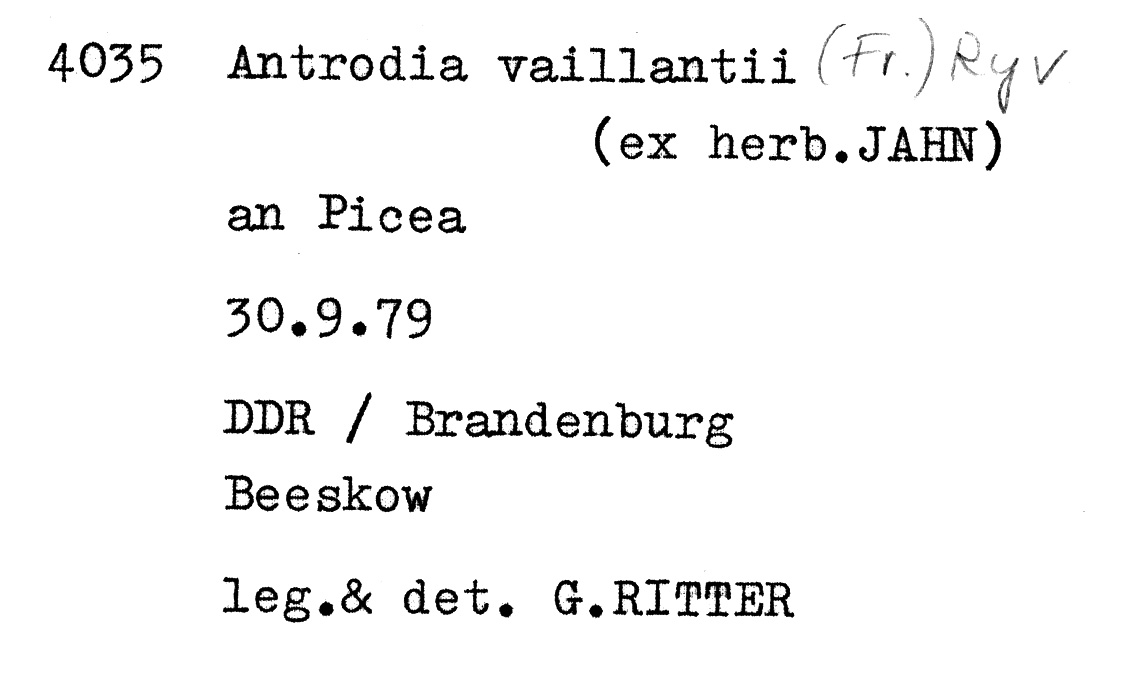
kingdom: Plantae
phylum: Tracheophyta
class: Pinopsida
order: Pinales
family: Pinaceae
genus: Picea
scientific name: Picea
